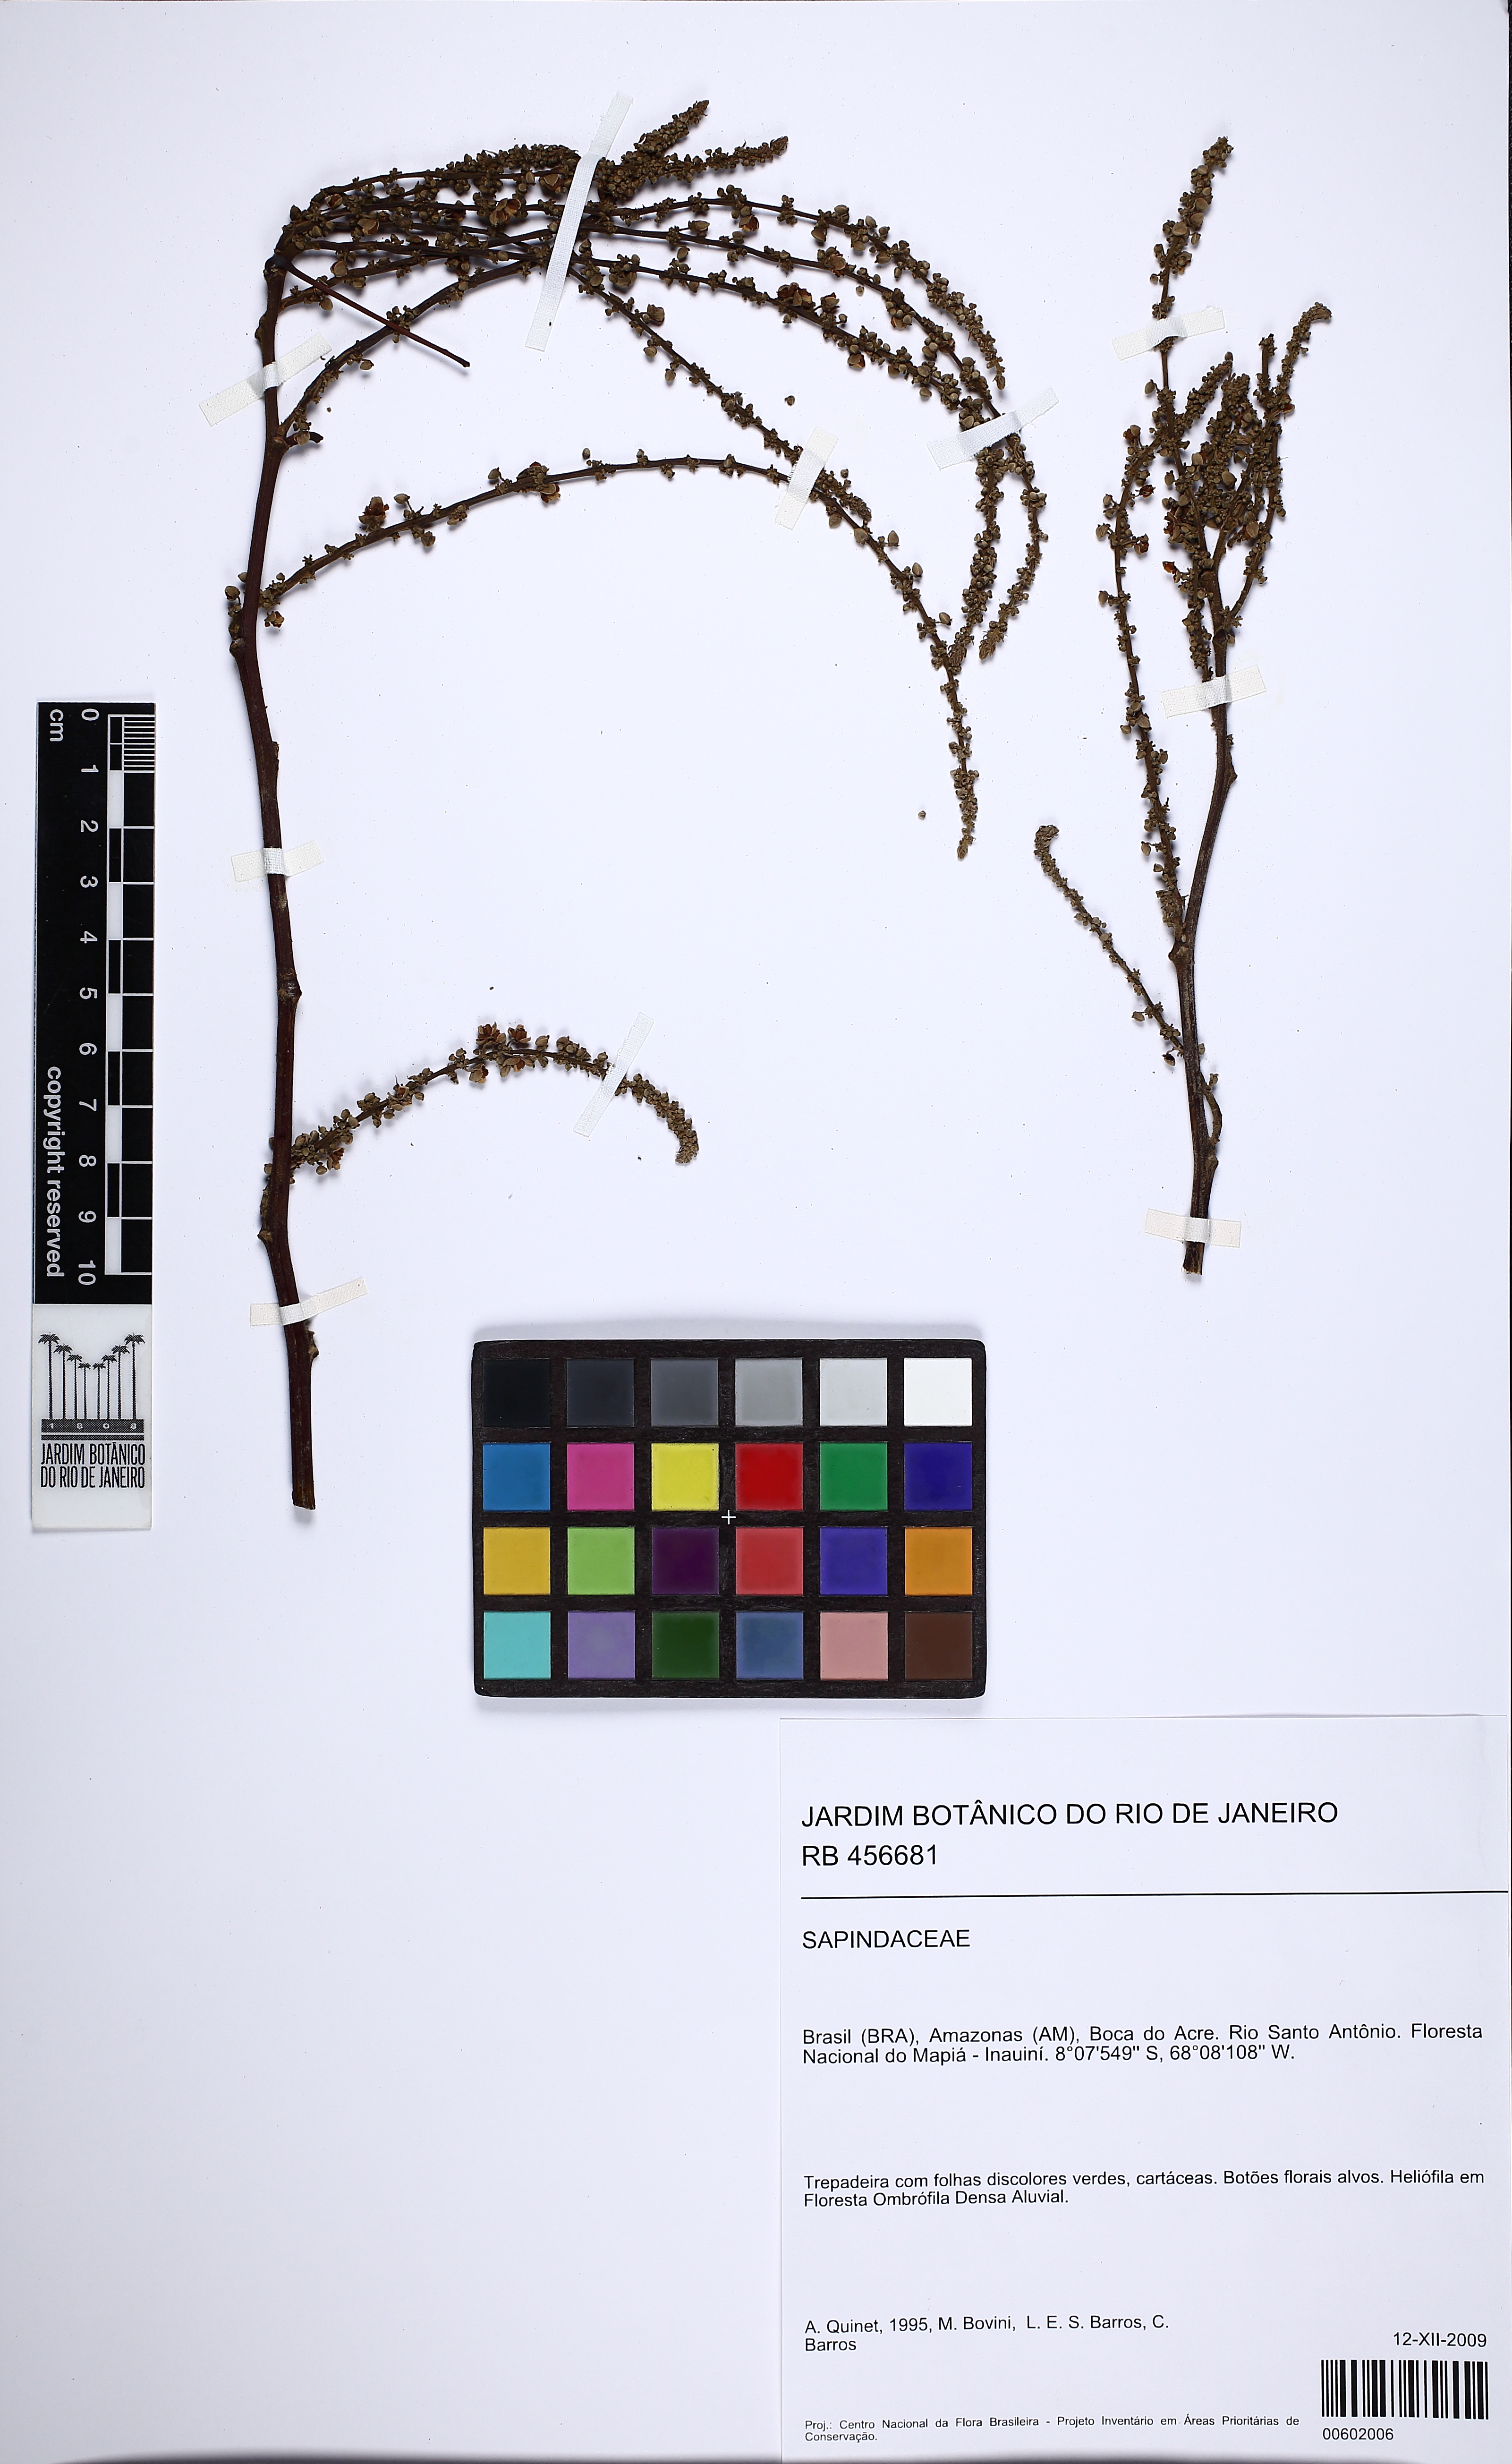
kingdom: Plantae
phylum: Tracheophyta
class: Magnoliopsida
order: Sapindales
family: Sapindaceae
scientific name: Sapindaceae
